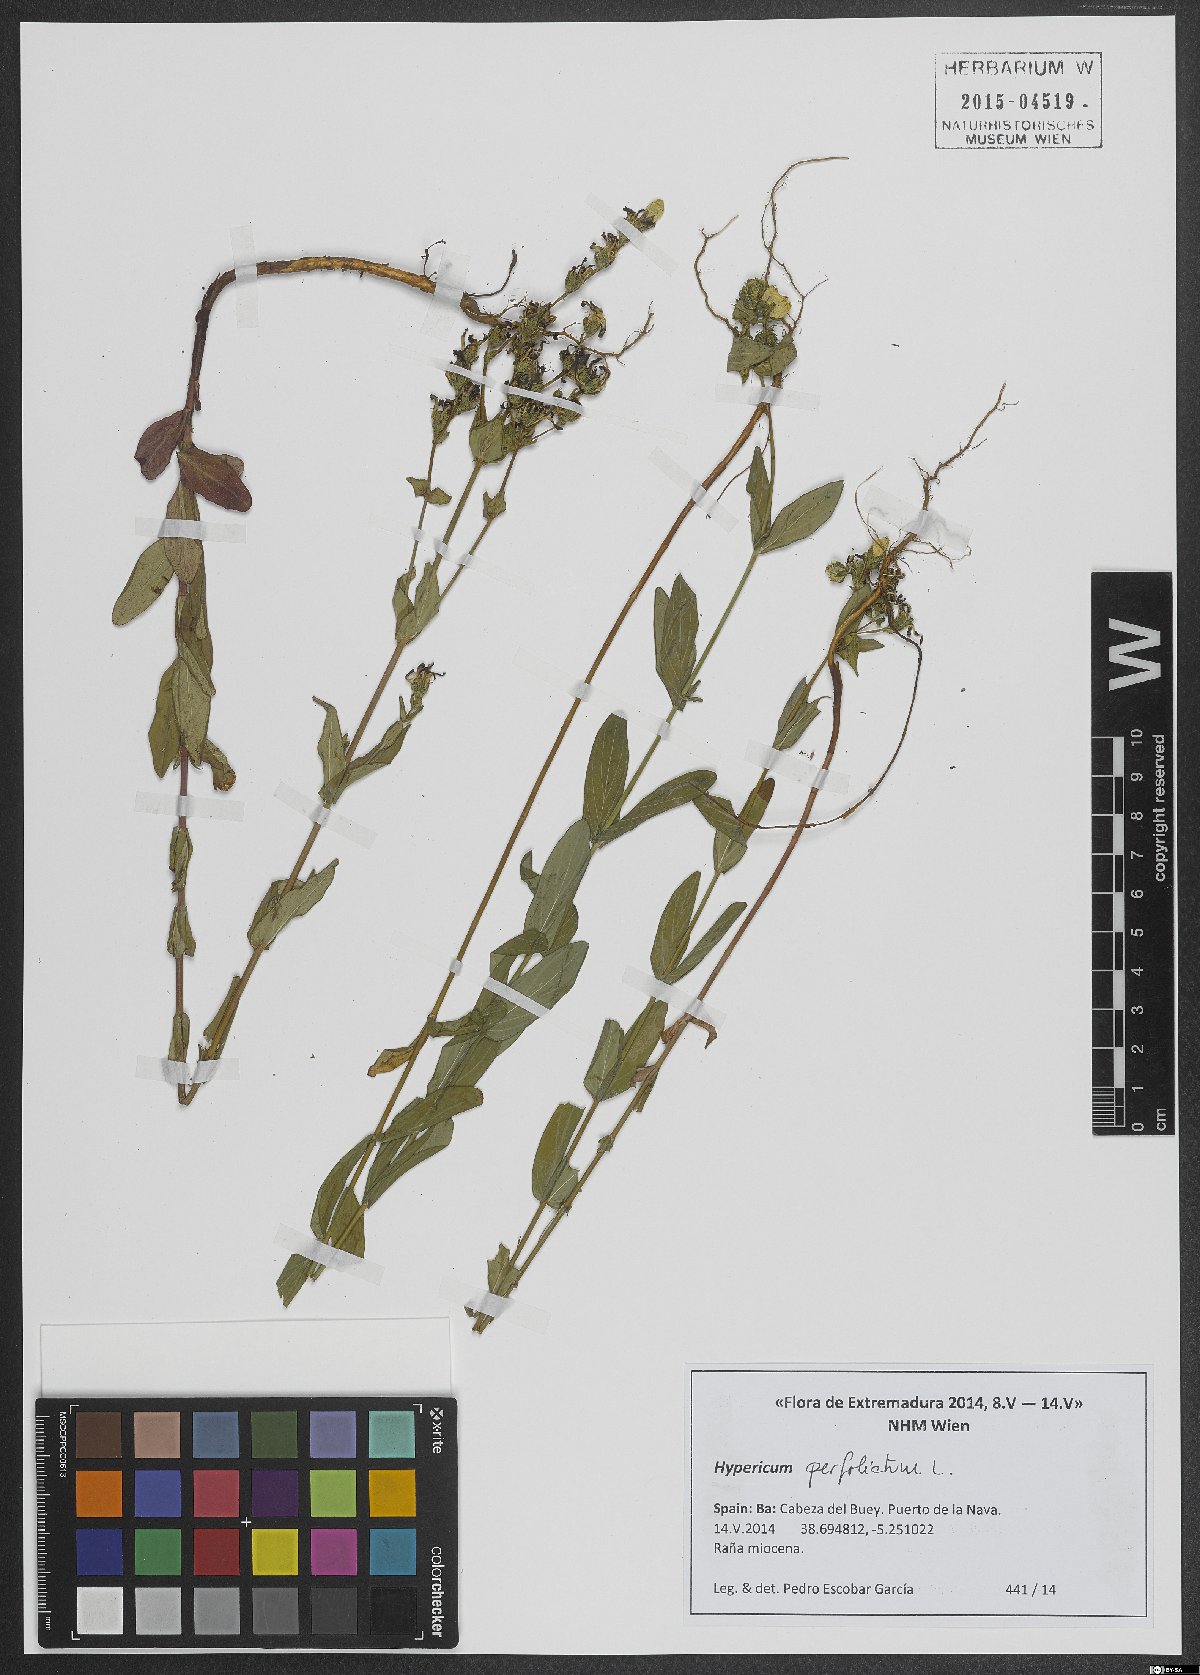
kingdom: Plantae
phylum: Tracheophyta
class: Magnoliopsida
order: Malpighiales
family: Hypericaceae
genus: Hypericum
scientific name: Hypericum perfoliatum
